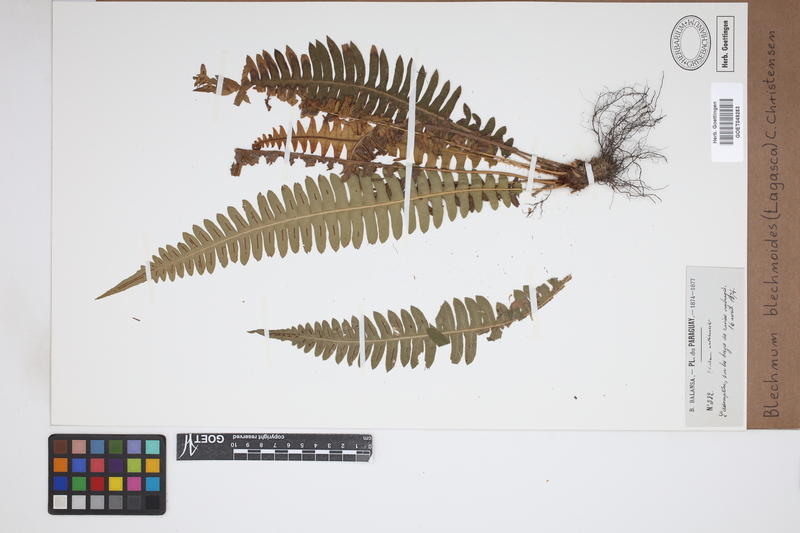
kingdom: Plantae
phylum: Tracheophyta
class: Polypodiopsida
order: Polypodiales
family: Blechnaceae
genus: Blechnum
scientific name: Blechnum polypodioides
